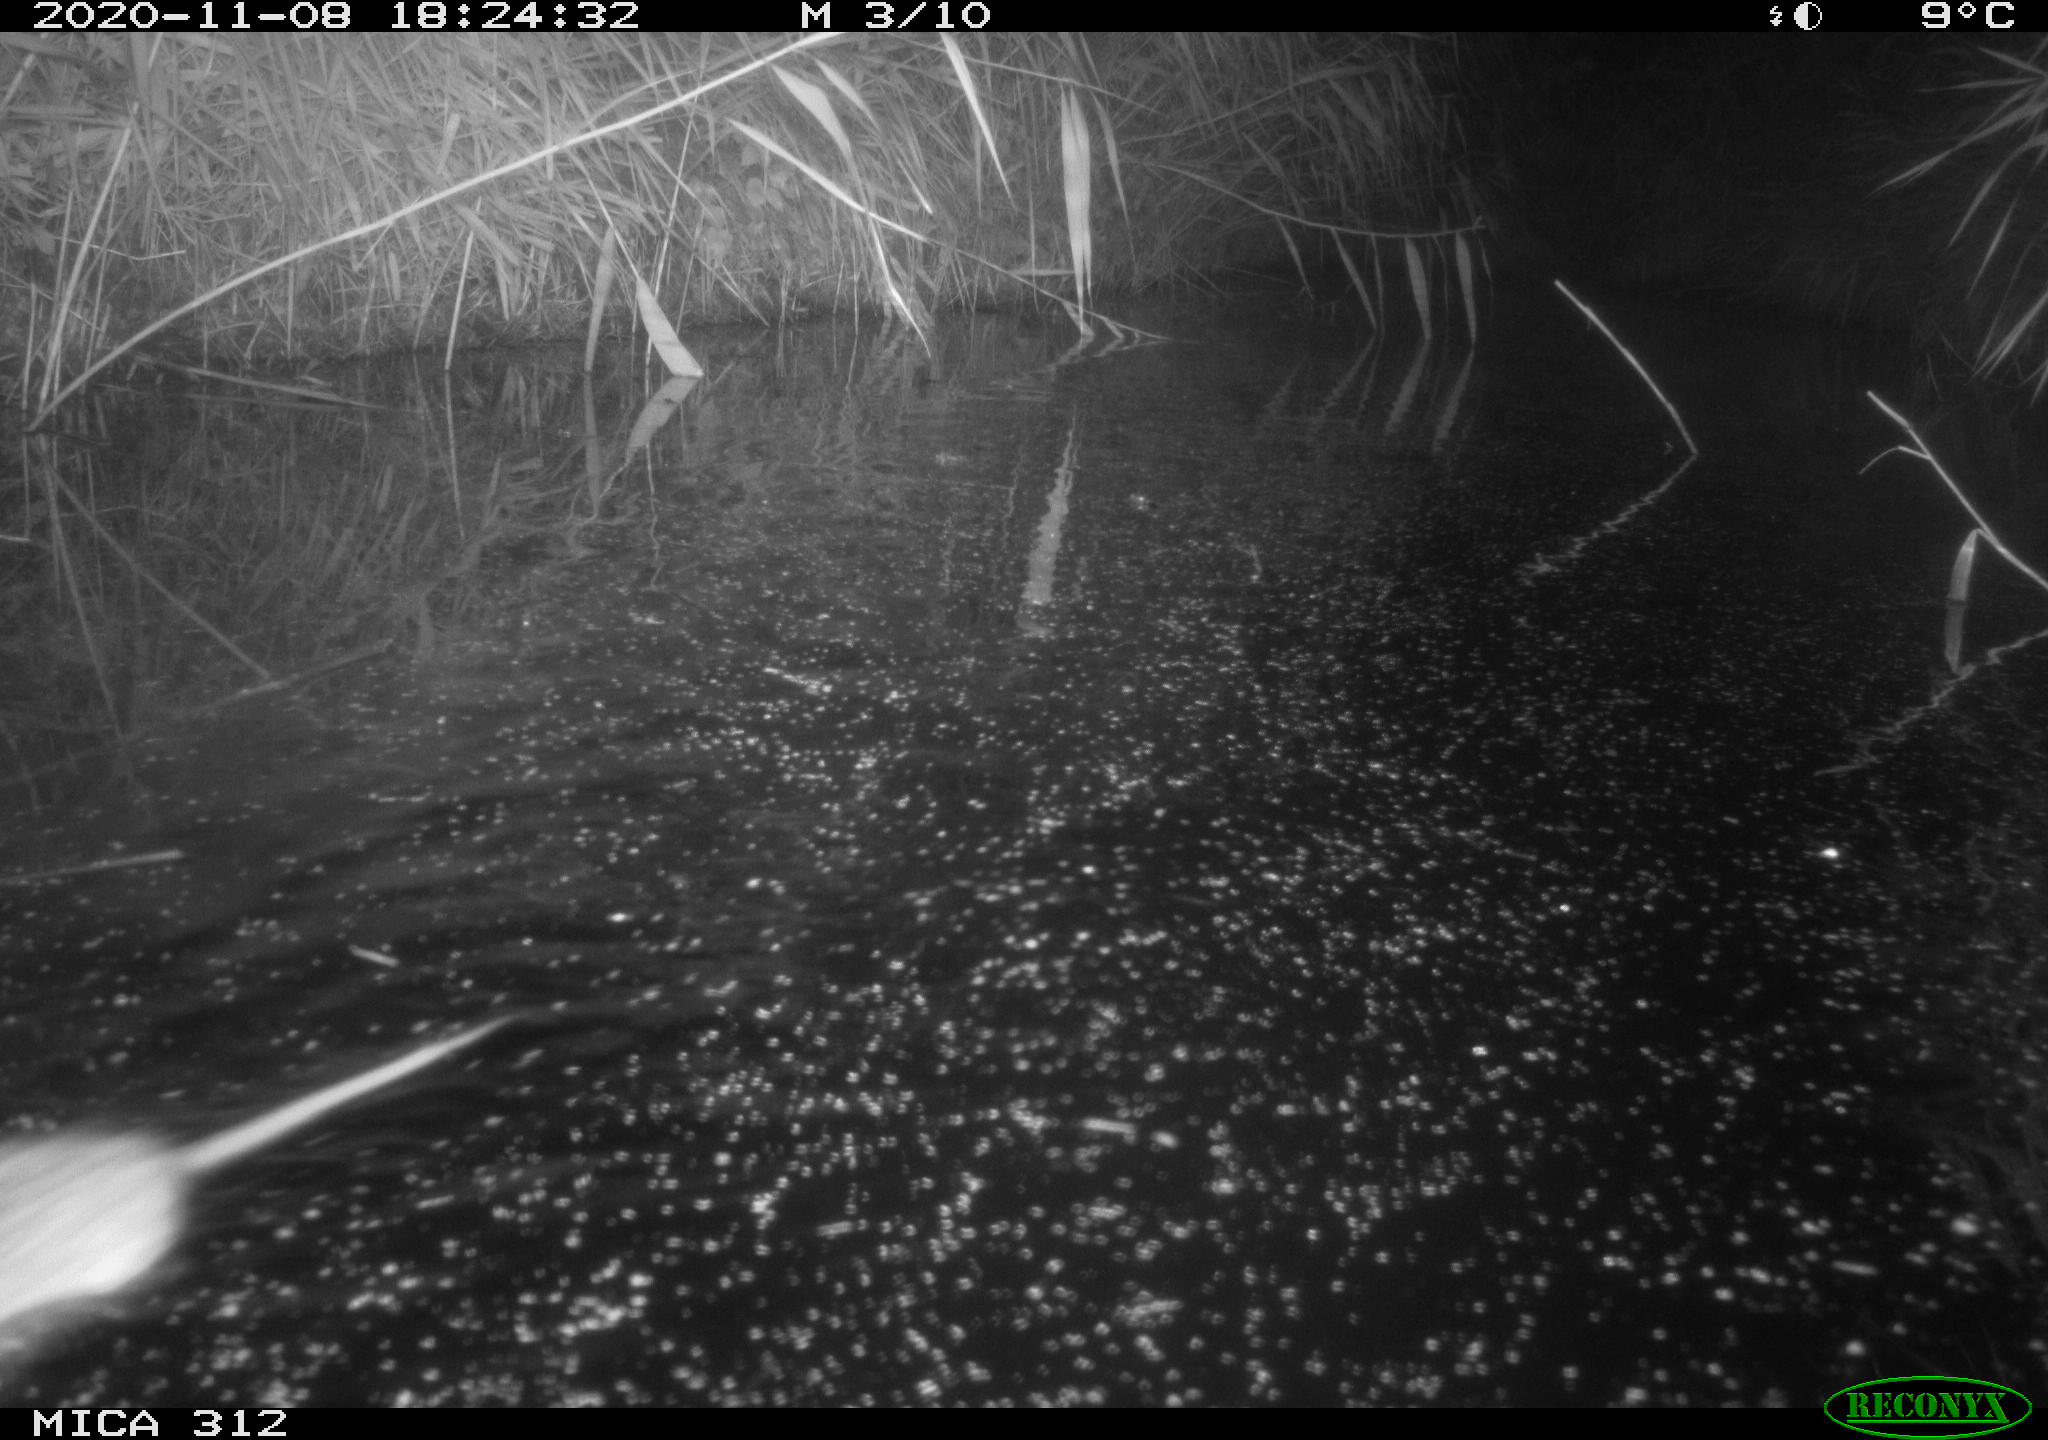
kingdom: Animalia
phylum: Chordata
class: Mammalia
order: Rodentia
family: Muridae
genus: Rattus
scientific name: Rattus norvegicus
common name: Brown rat
